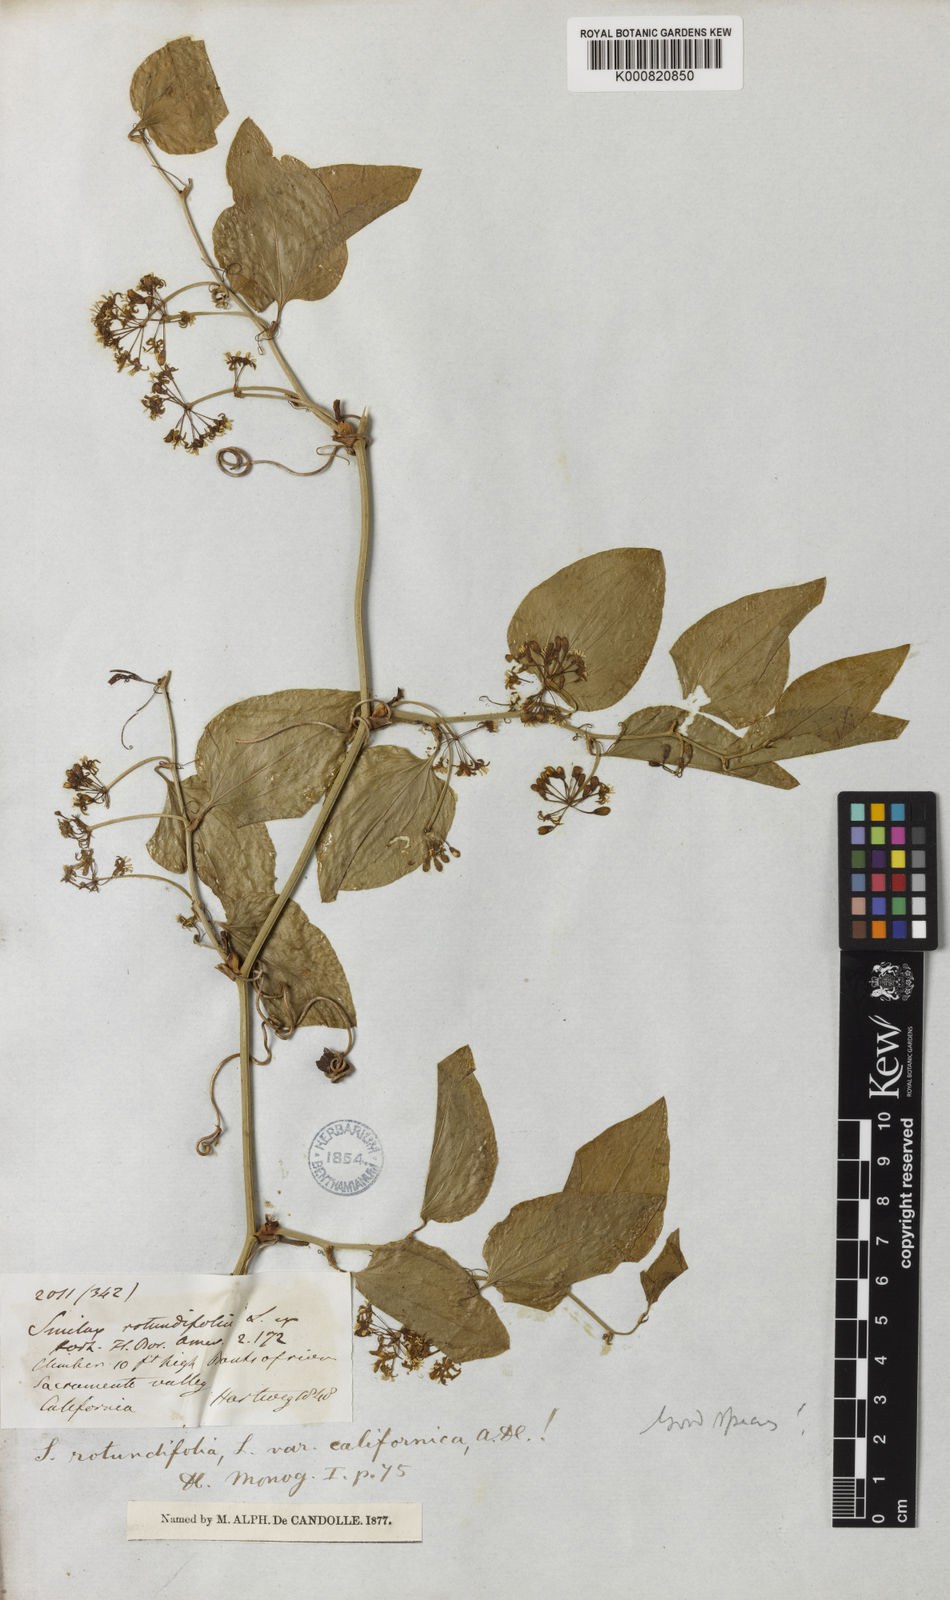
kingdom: Plantae
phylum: Tracheophyta
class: Liliopsida
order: Liliales
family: Smilacaceae
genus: Smilax
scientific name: Smilax californica
